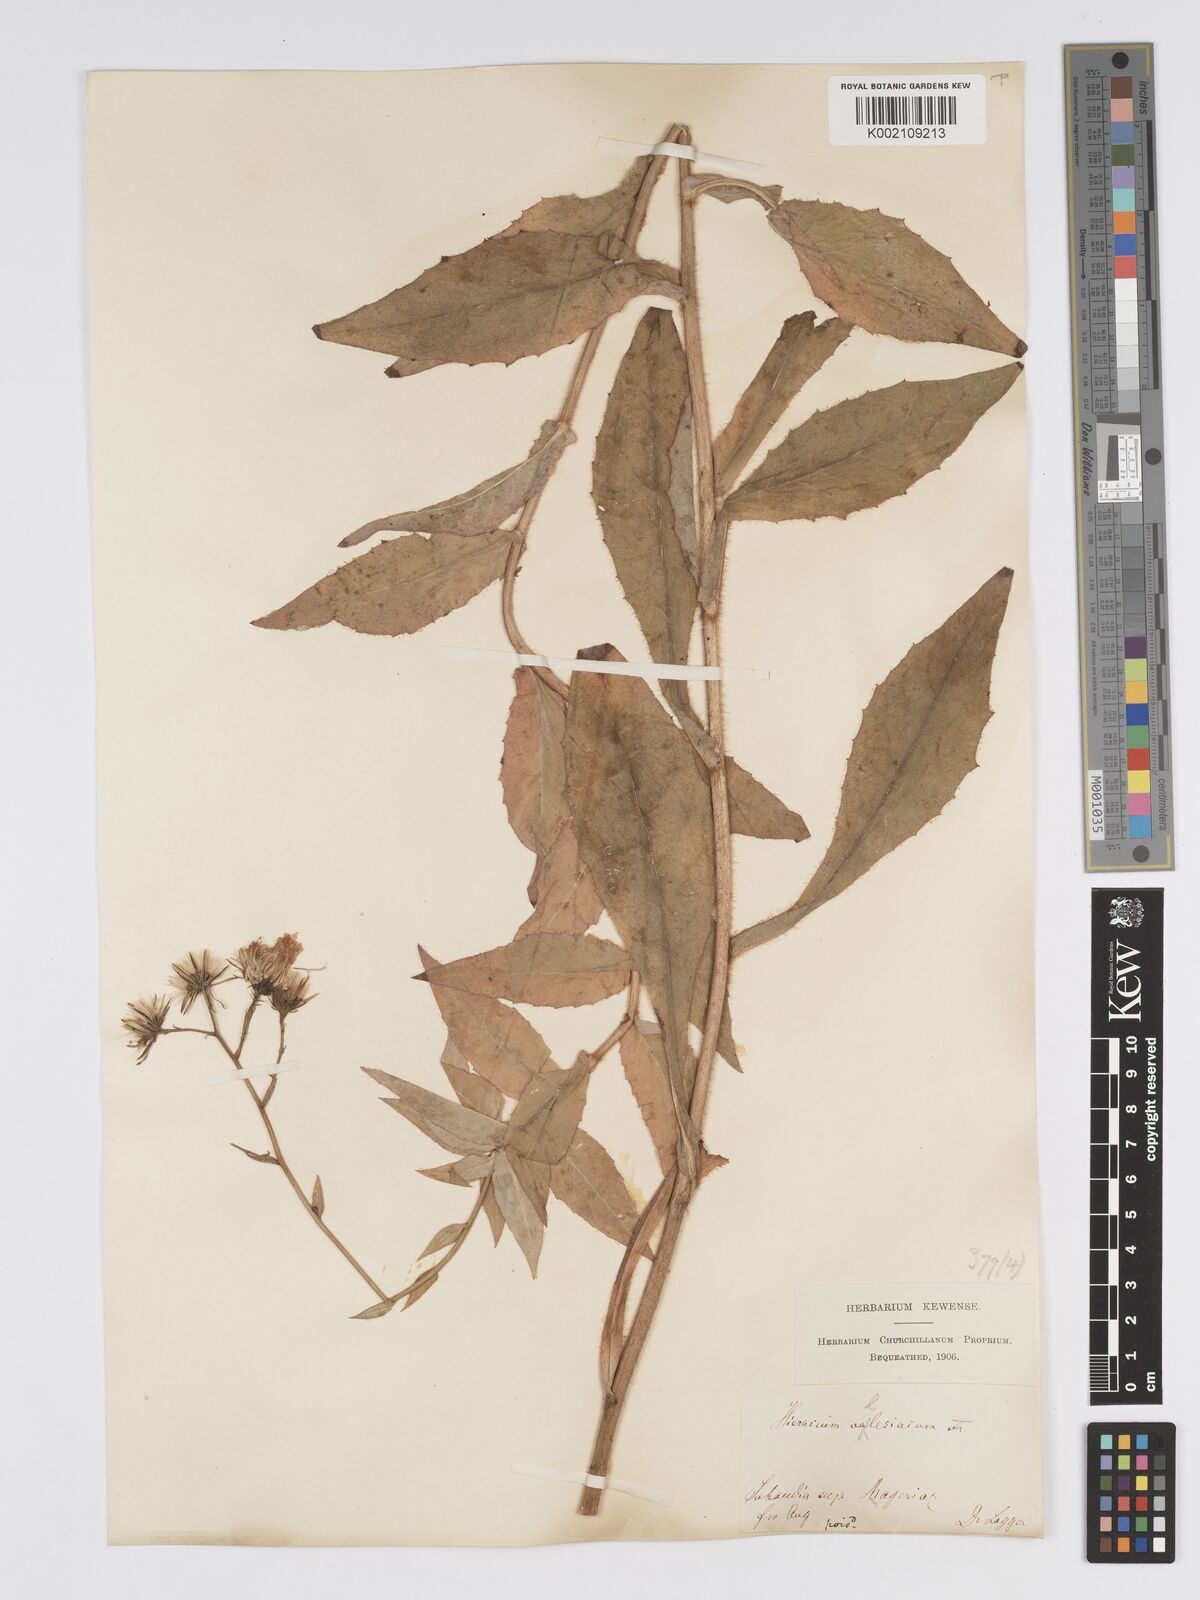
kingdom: Plantae
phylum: Tracheophyta
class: Magnoliopsida
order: Asterales
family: Asteraceae
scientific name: Asteraceae
